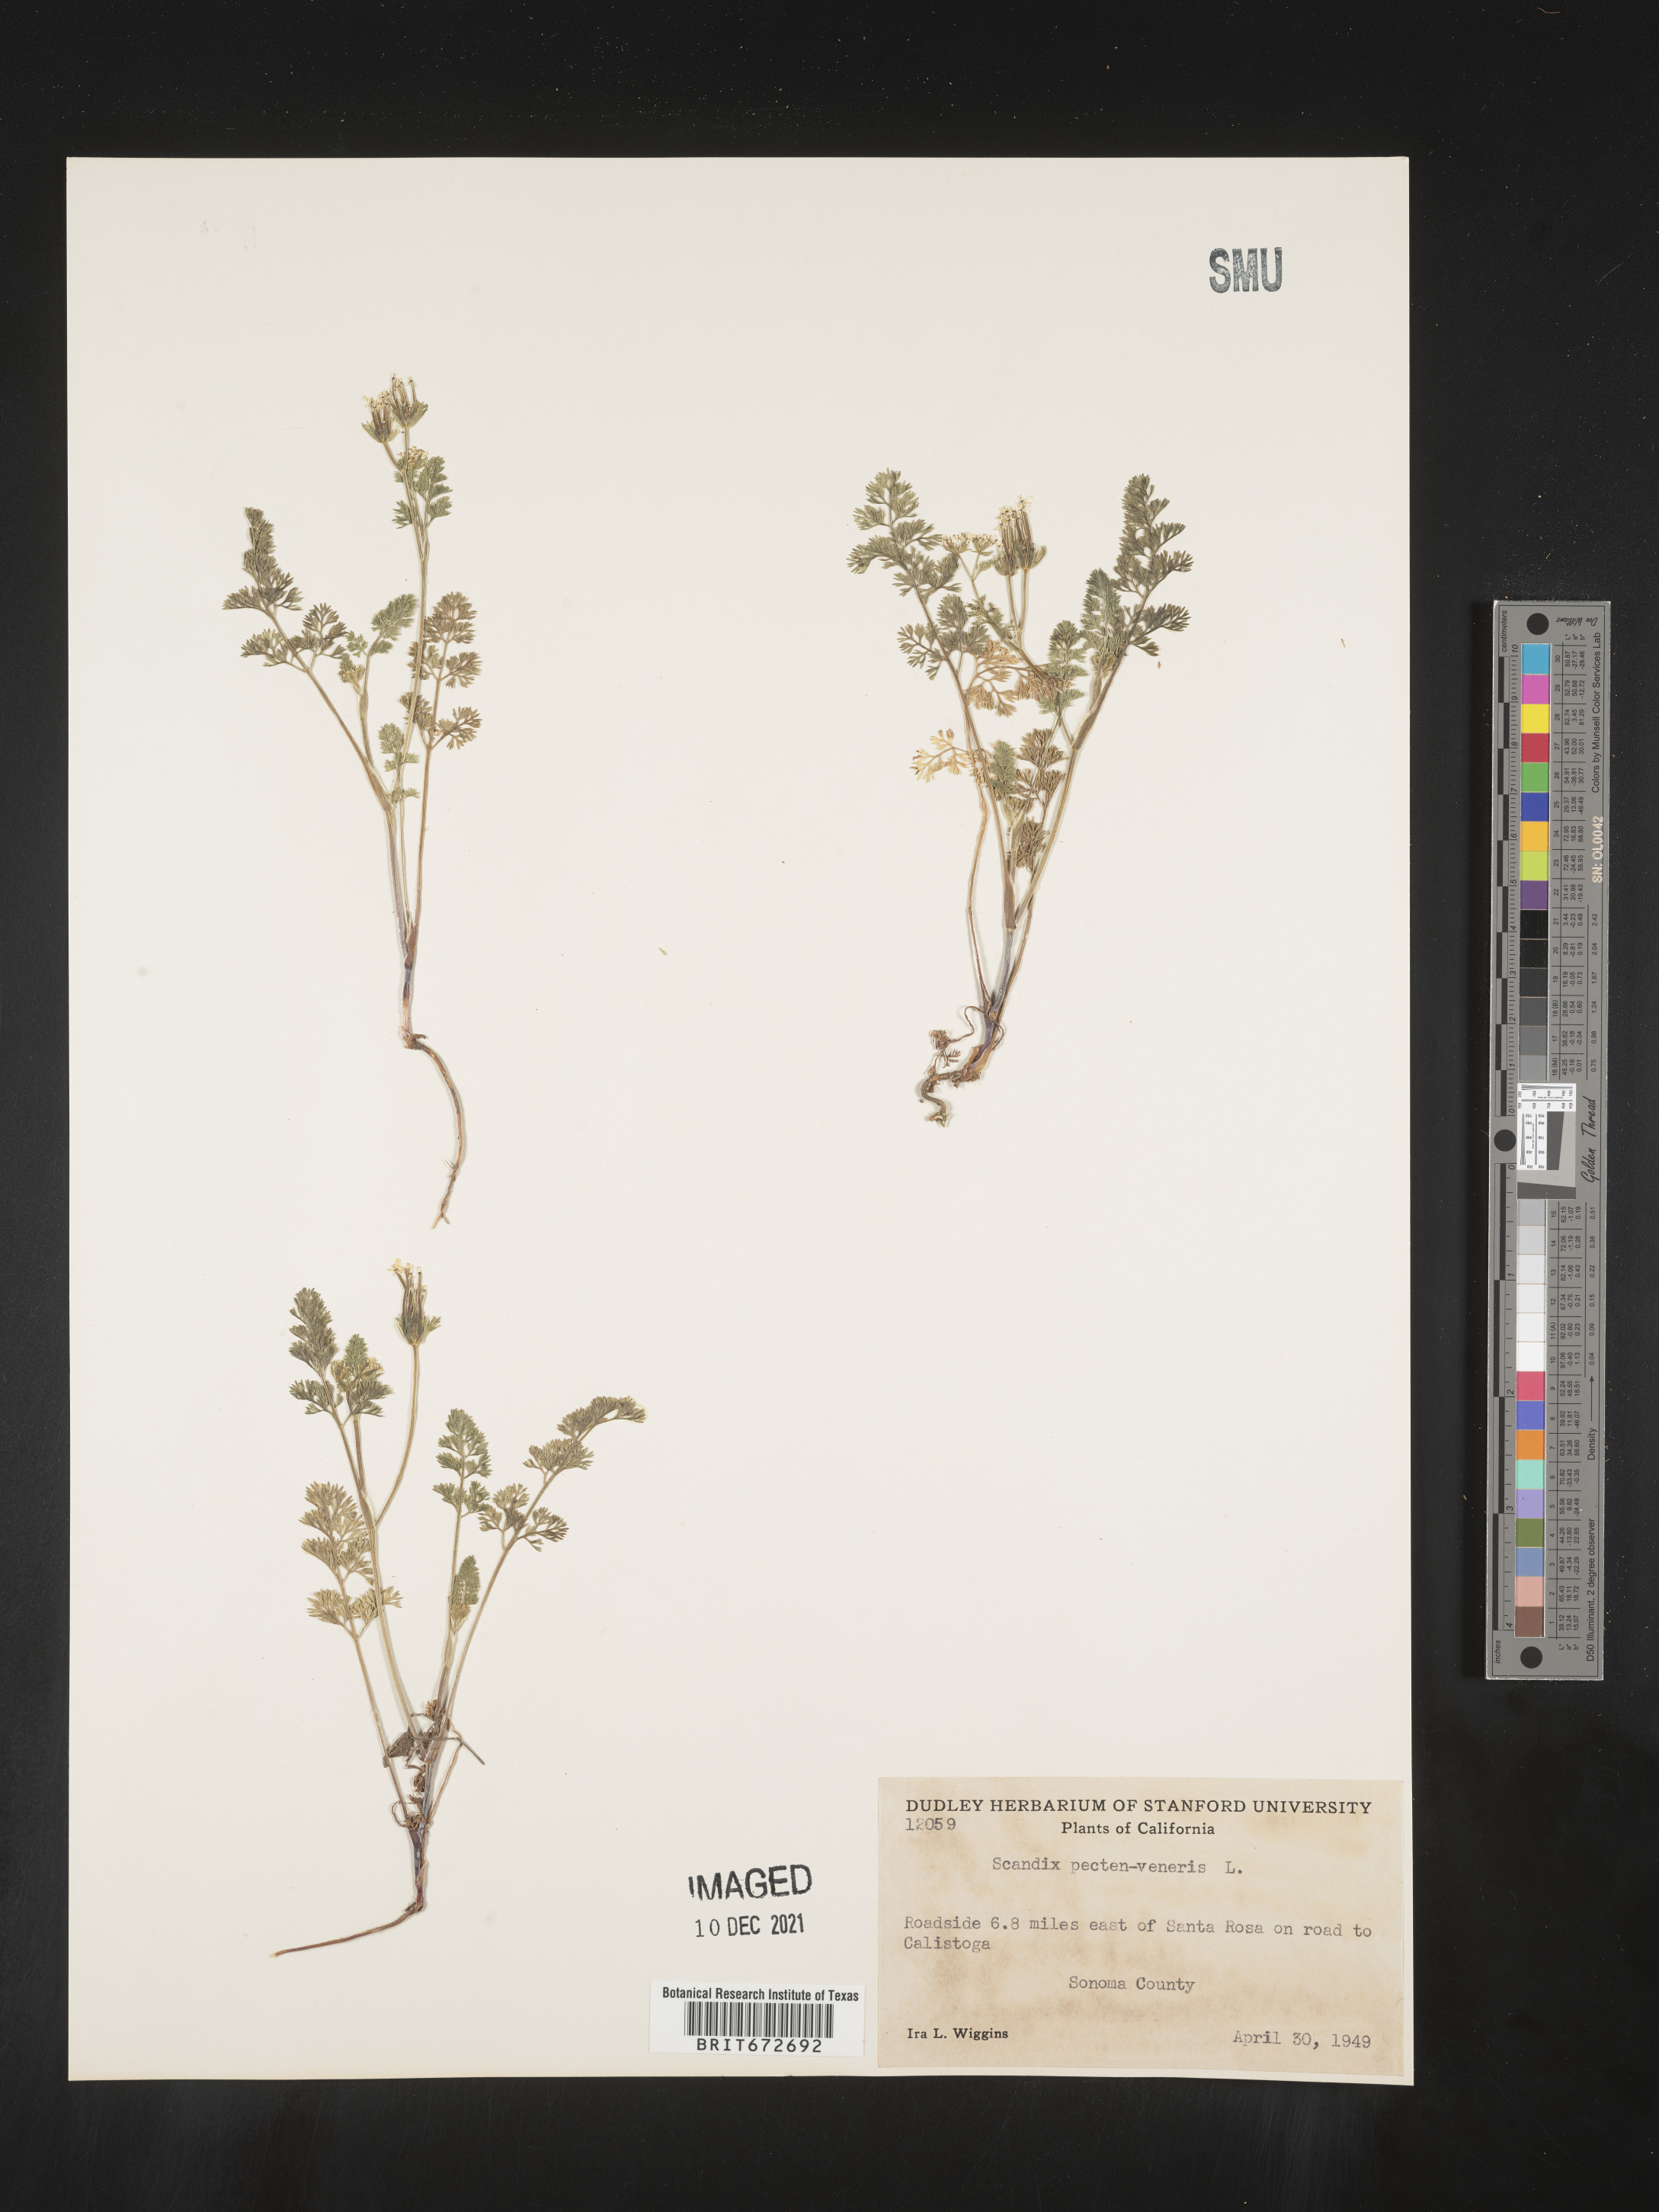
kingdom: Plantae
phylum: Tracheophyta
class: Magnoliopsida
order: Apiales
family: Apiaceae
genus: Scandix
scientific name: Scandix
